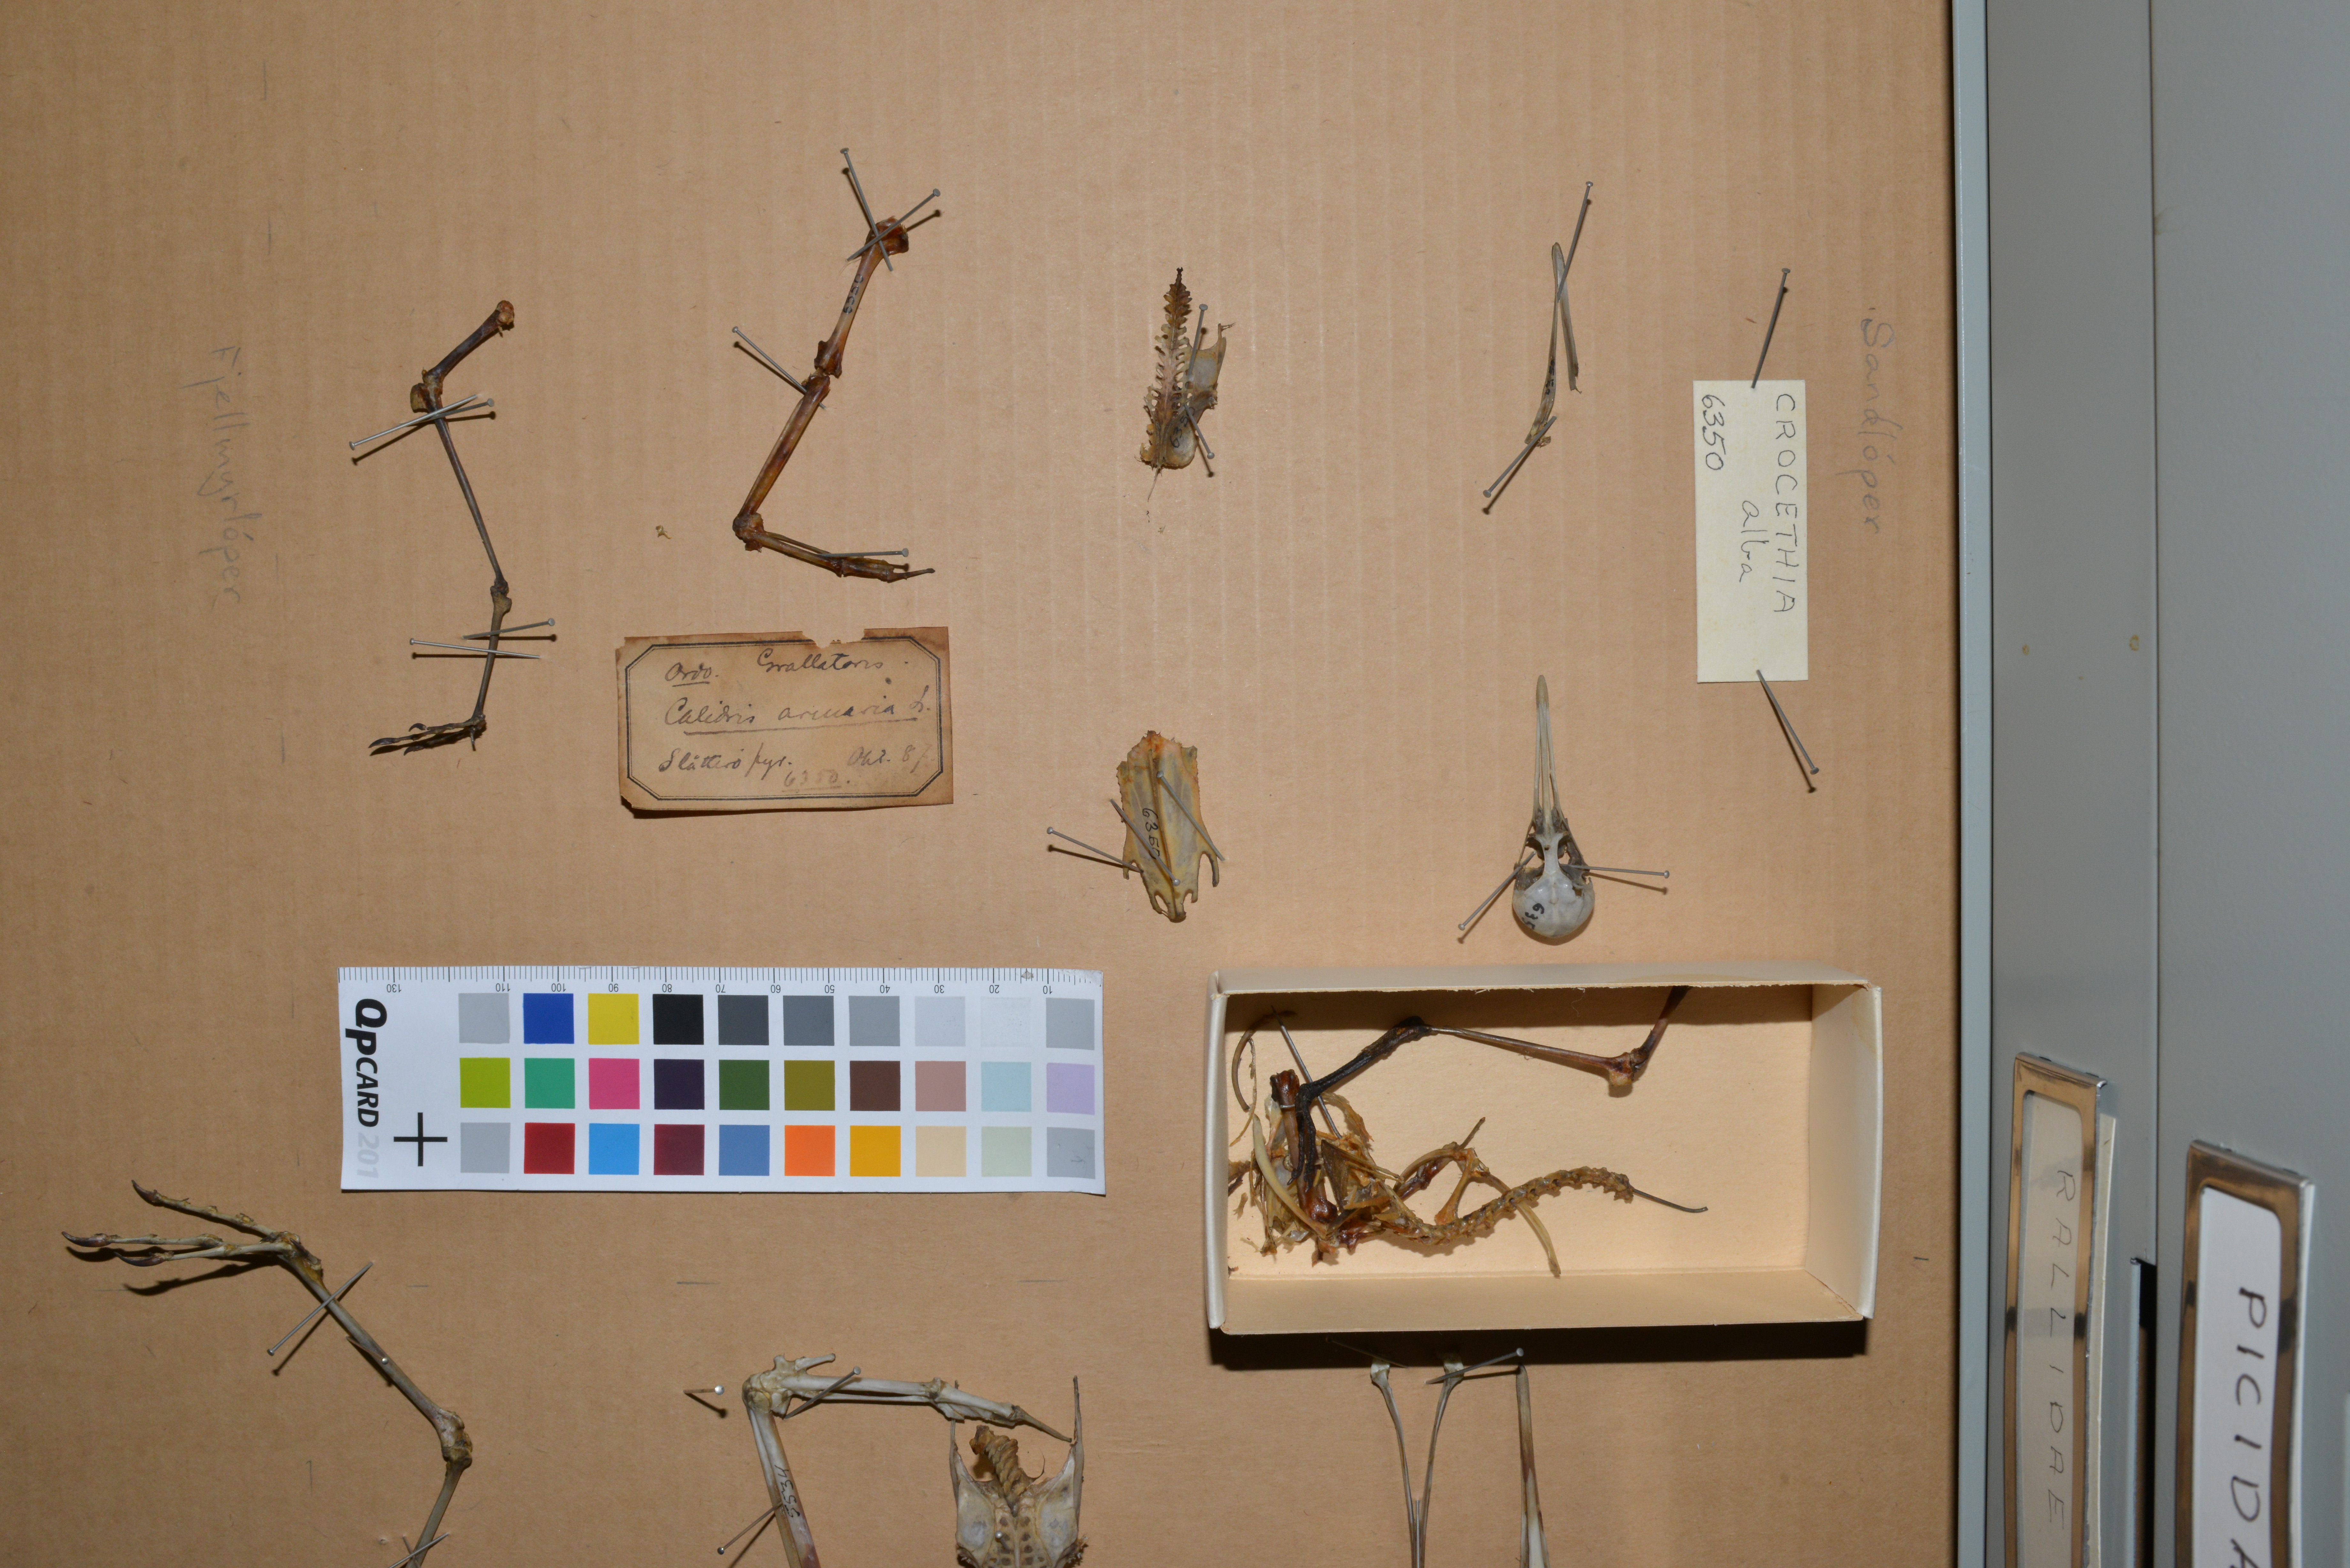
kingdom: Animalia
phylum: Chordata
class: Aves
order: Charadriiformes
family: Scolopacidae
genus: Calidris
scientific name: Calidris alba
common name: Sanderling
